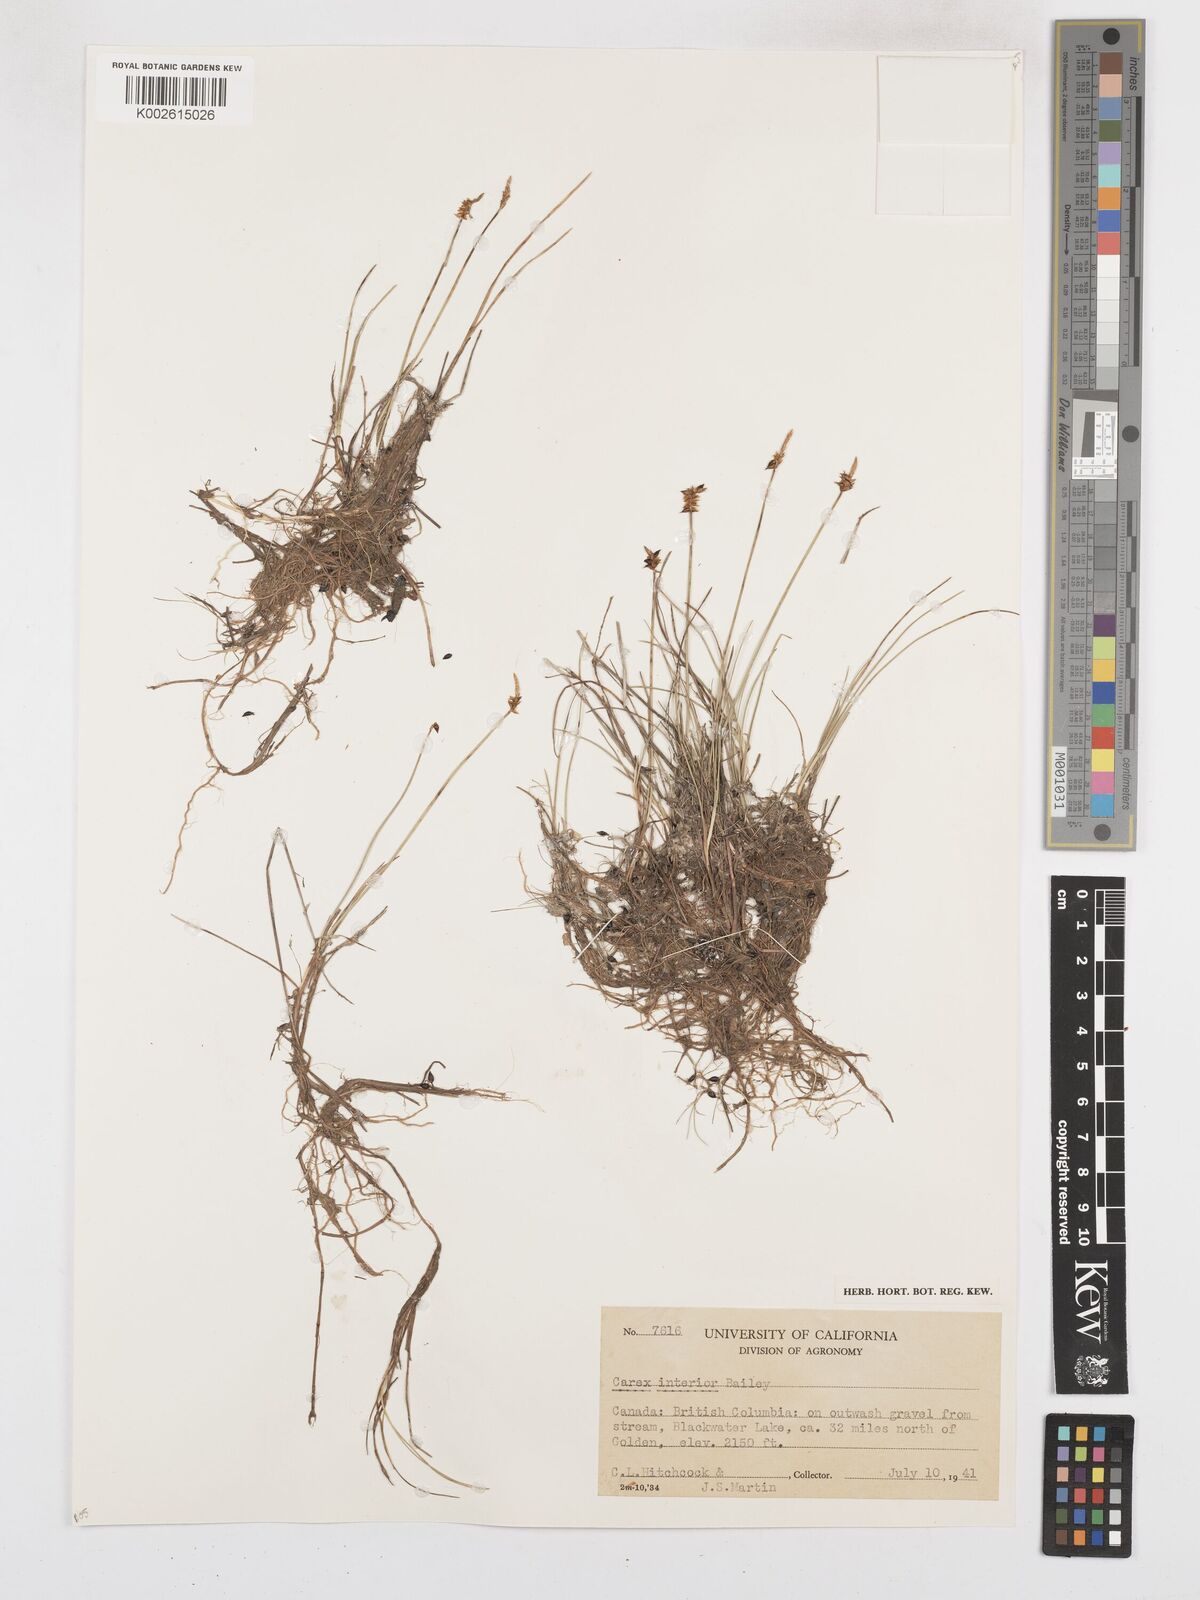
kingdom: Plantae
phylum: Tracheophyta
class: Liliopsida
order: Poales
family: Cyperaceae
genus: Carex
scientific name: Carex interior
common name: Inland sedge
